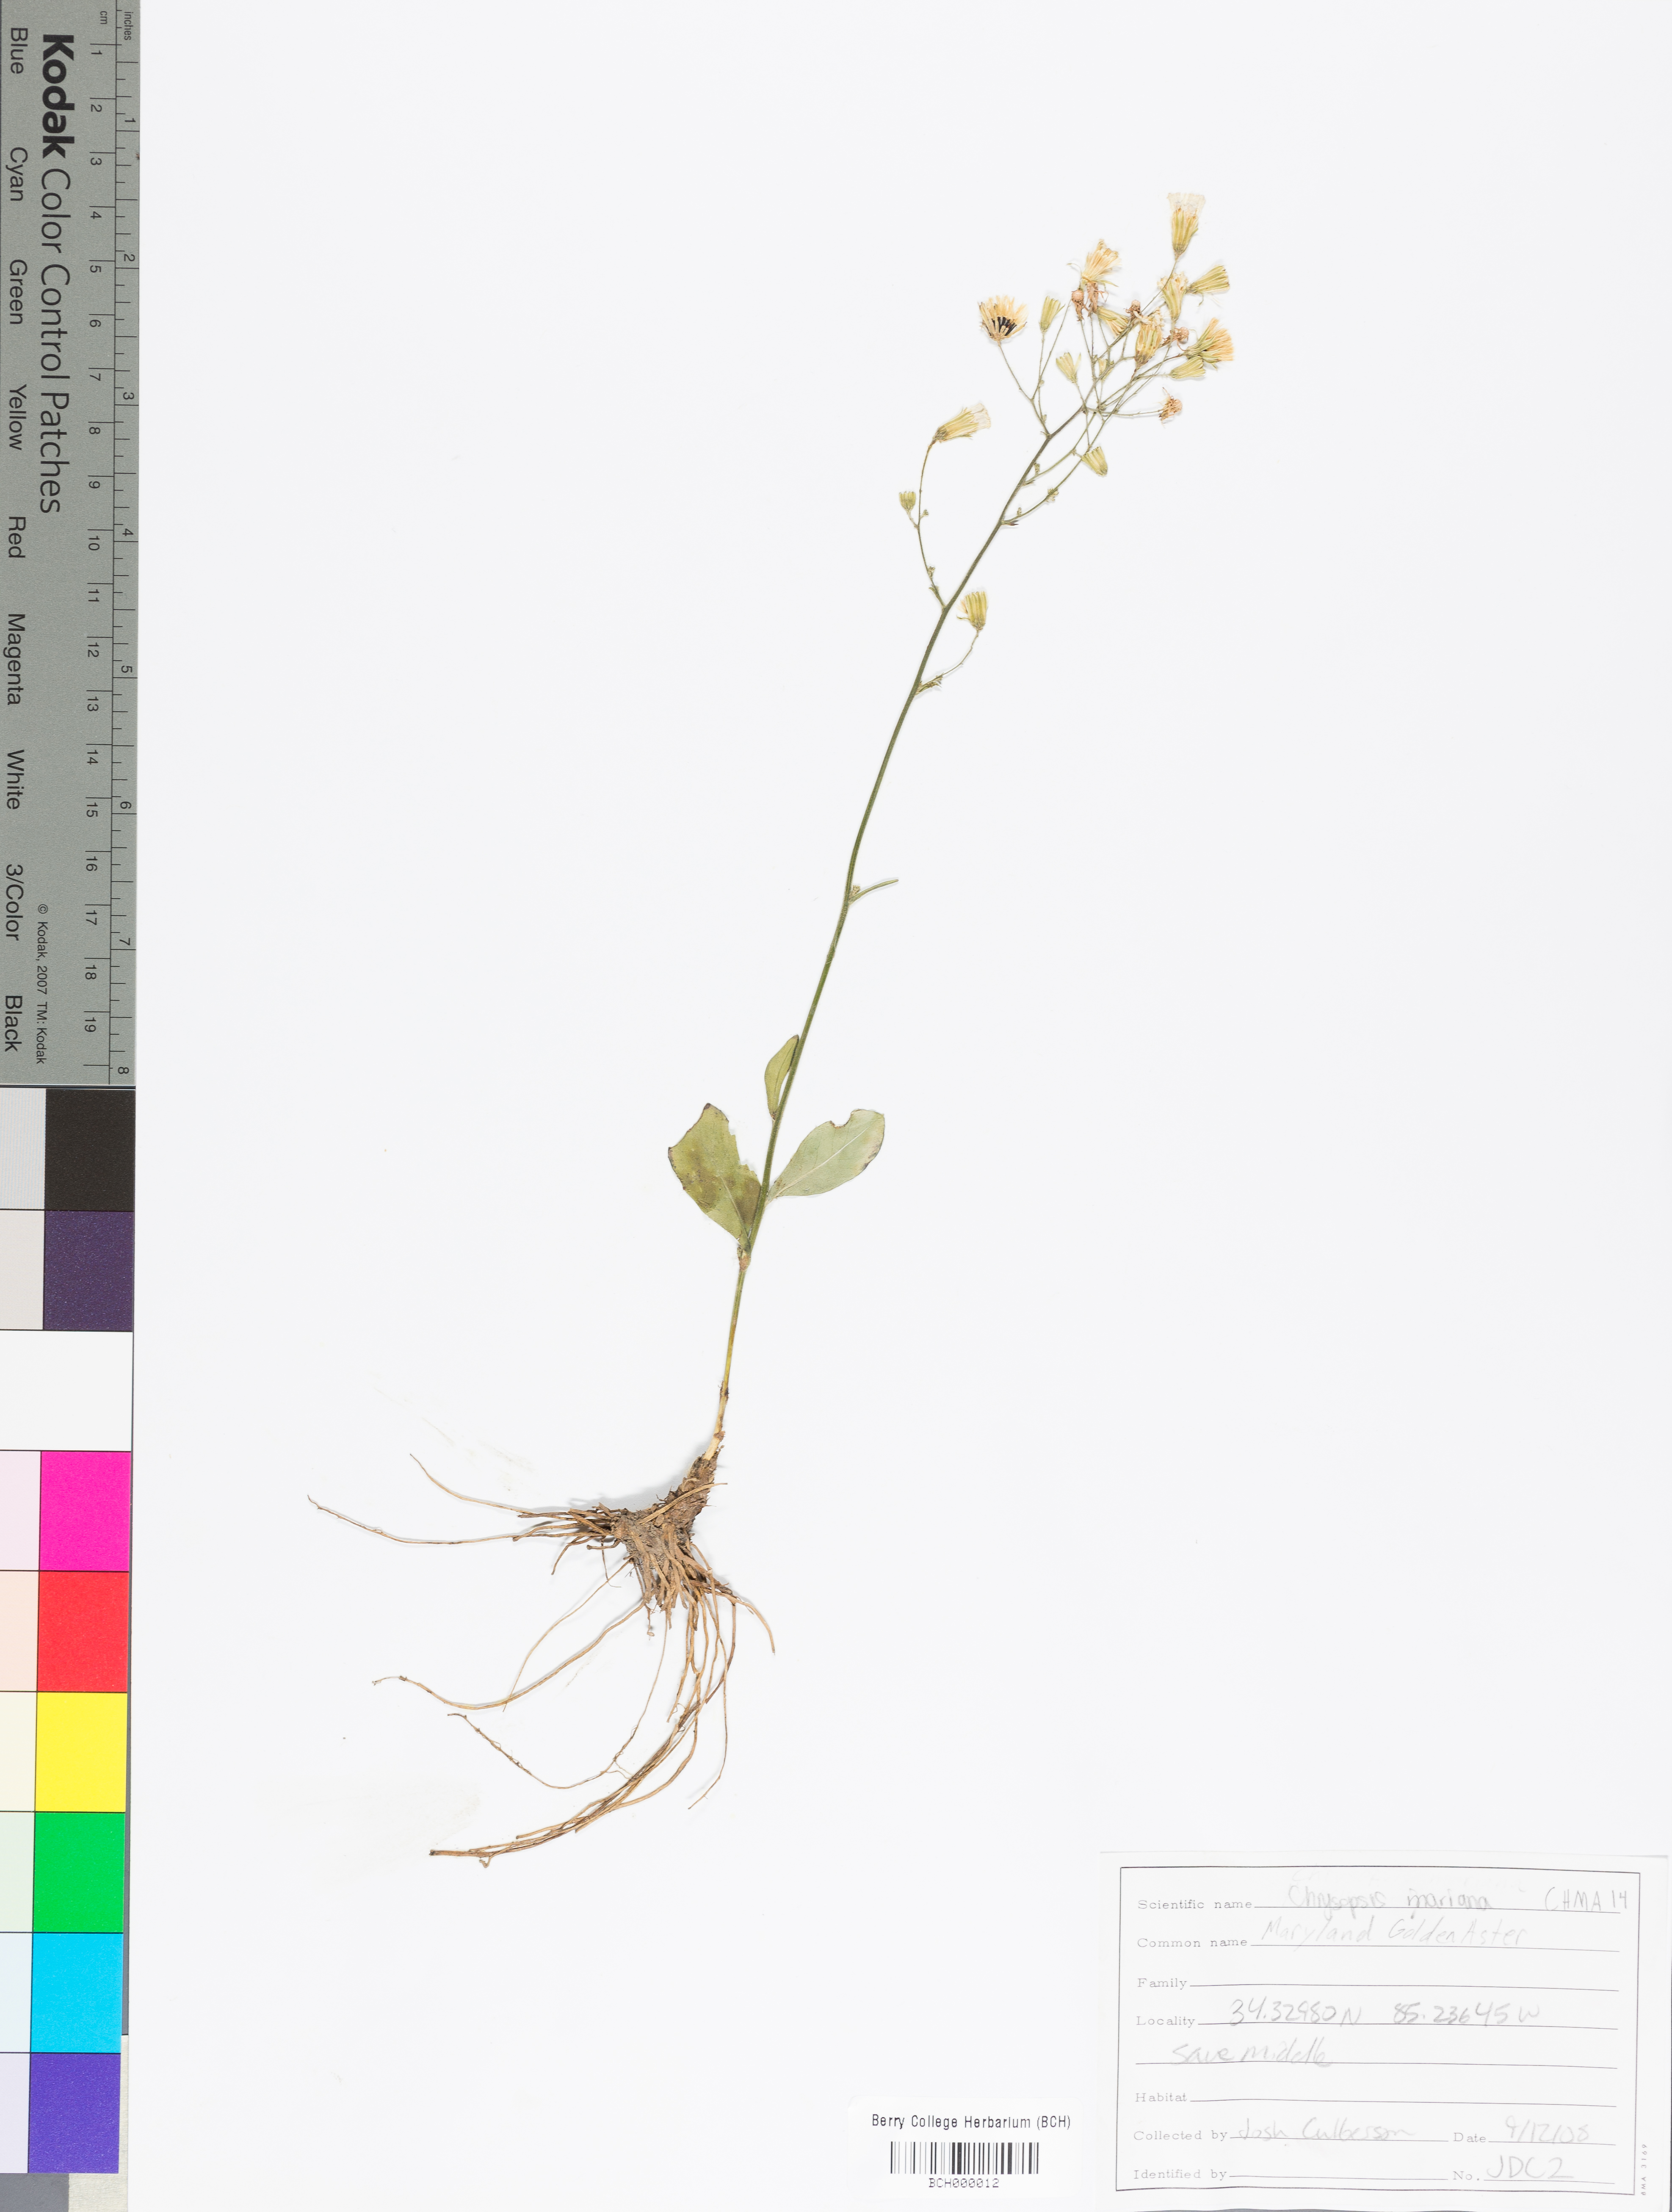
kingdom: Plantae
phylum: Tracheophyta
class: Magnoliopsida
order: Asterales
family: Asteraceae
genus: Chrysopsis
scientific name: Chrysopsis mariana
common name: Maryland golden-aster
